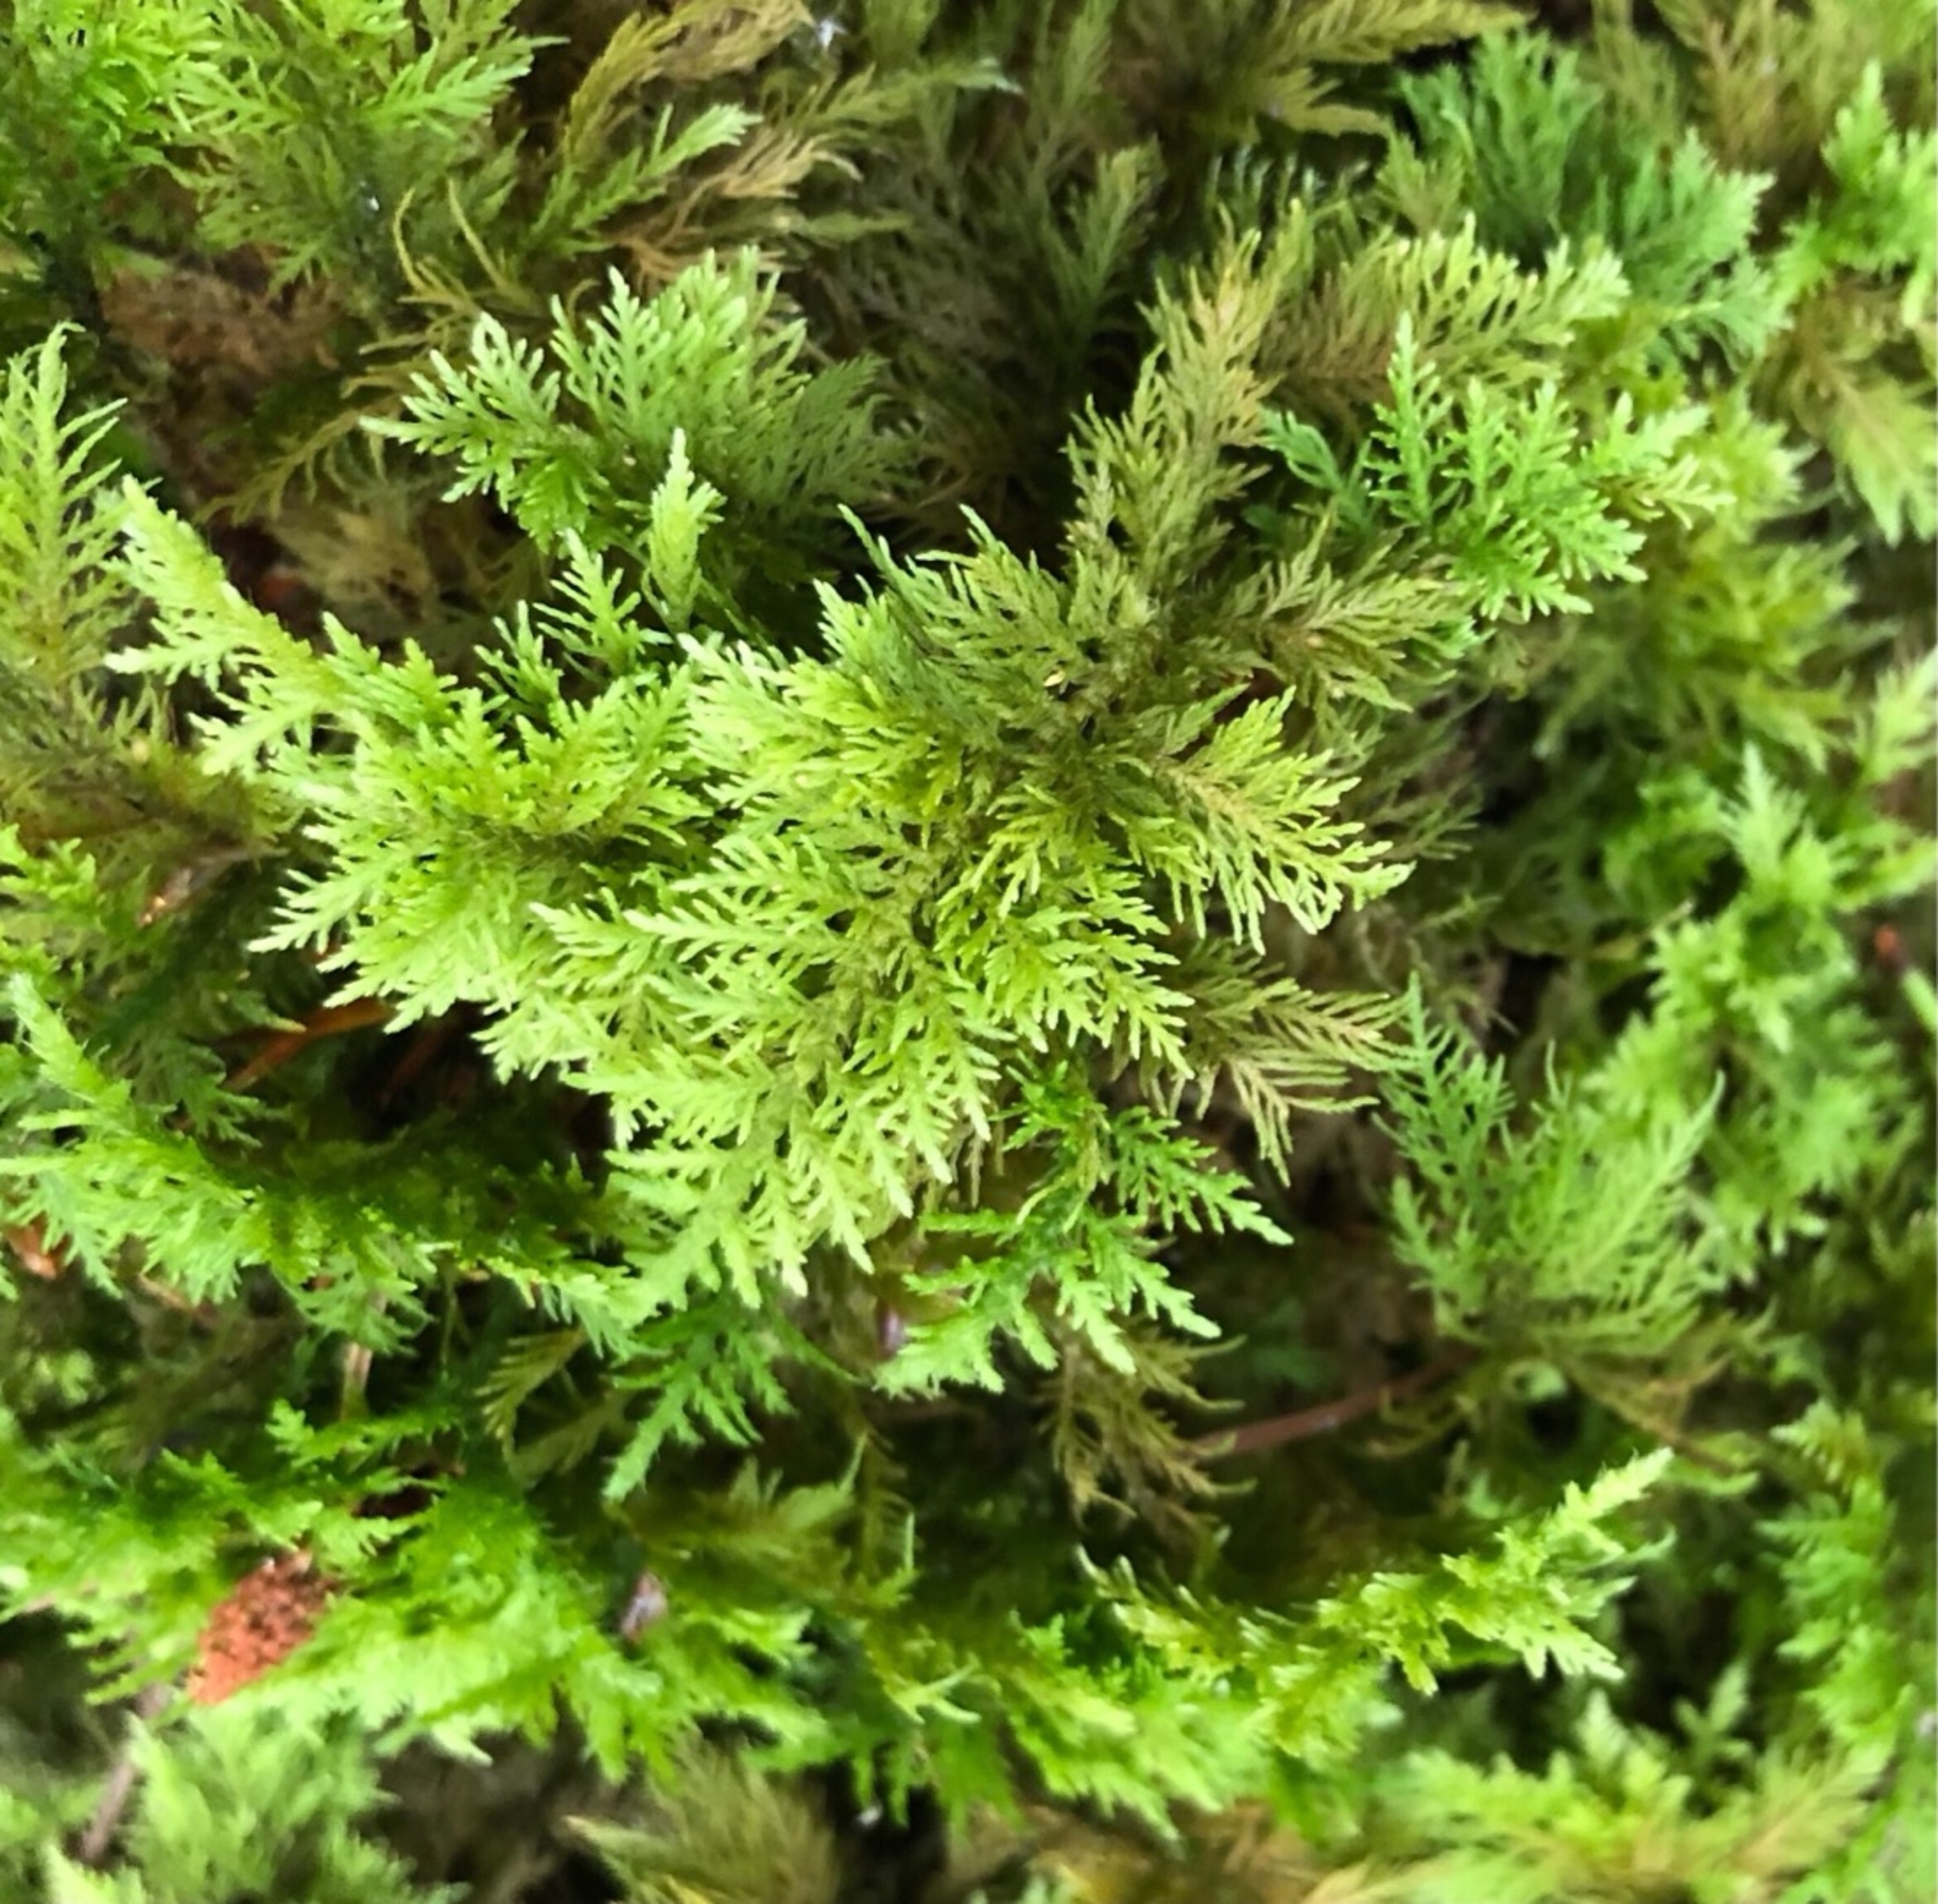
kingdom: Plantae
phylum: Bryophyta
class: Bryopsida
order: Hypnales
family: Thuidiaceae
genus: Thuidium
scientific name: Thuidium tamariscinum
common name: Pryd-bregnemos
